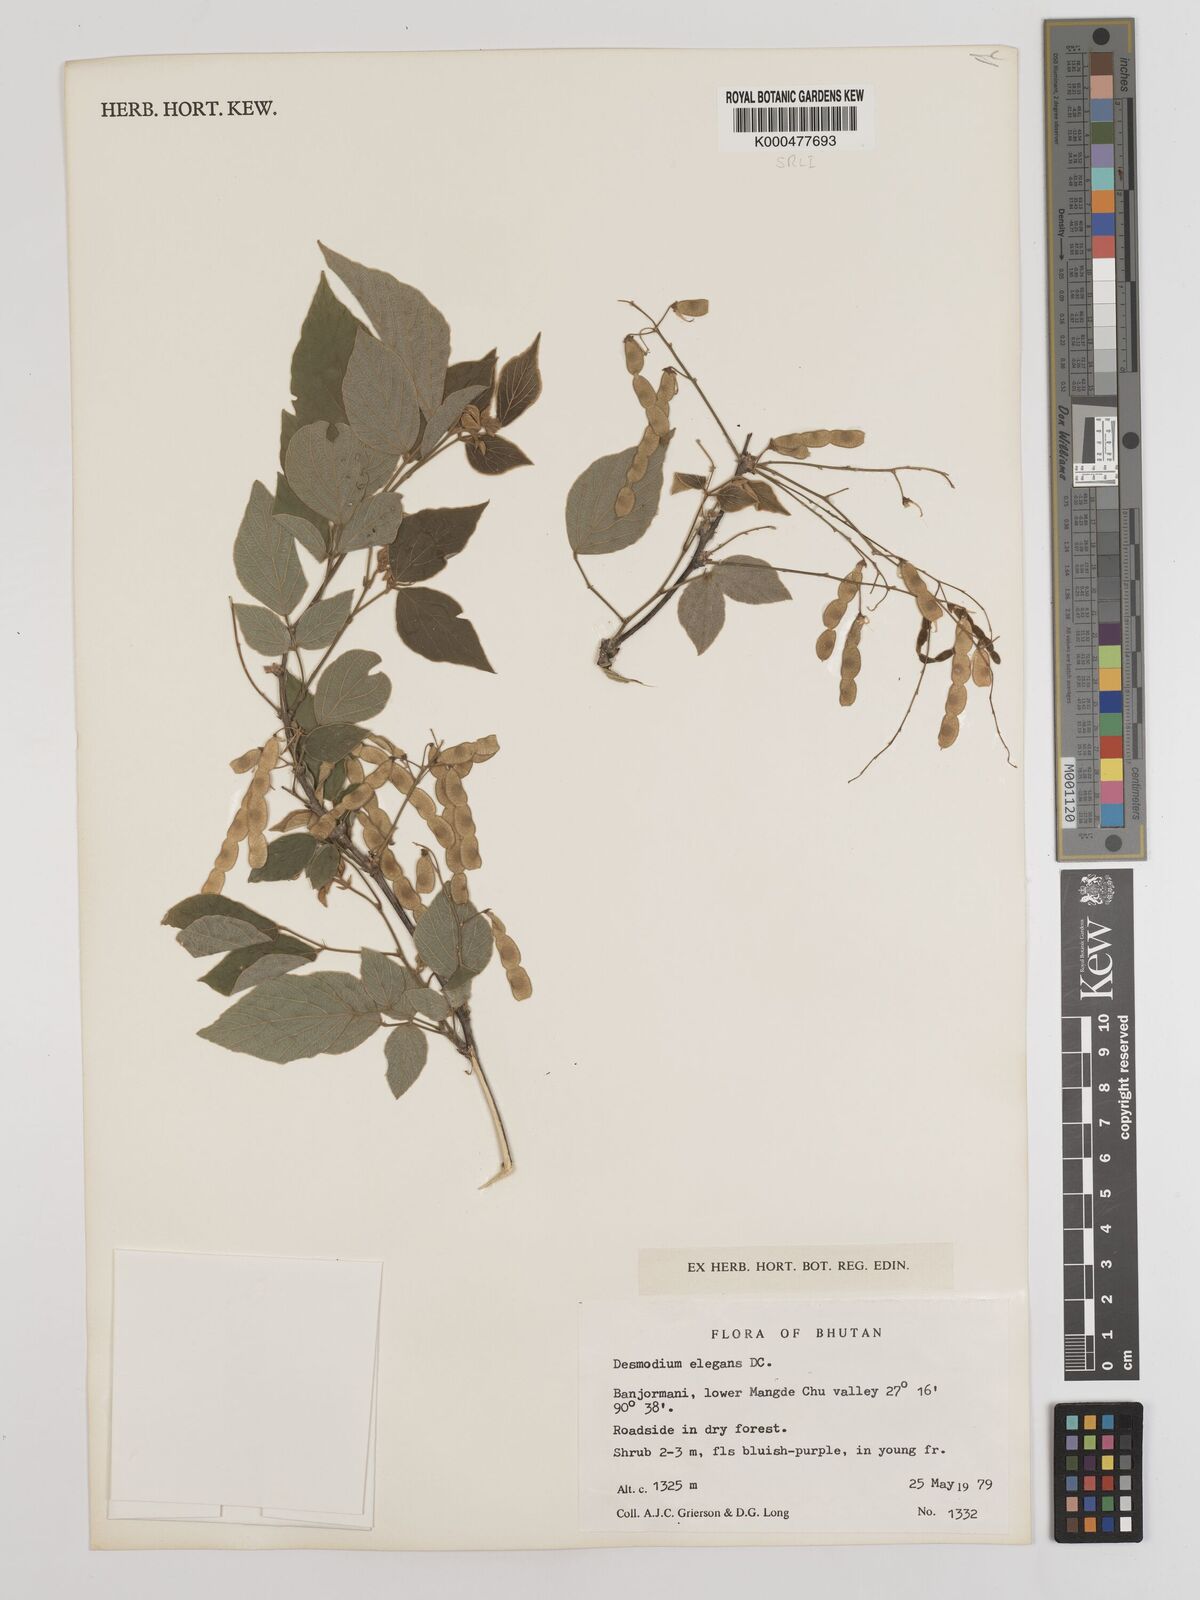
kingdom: Plantae
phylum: Tracheophyta
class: Magnoliopsida
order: Fabales
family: Fabaceae
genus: Sunhangia
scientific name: Sunhangia elegans
